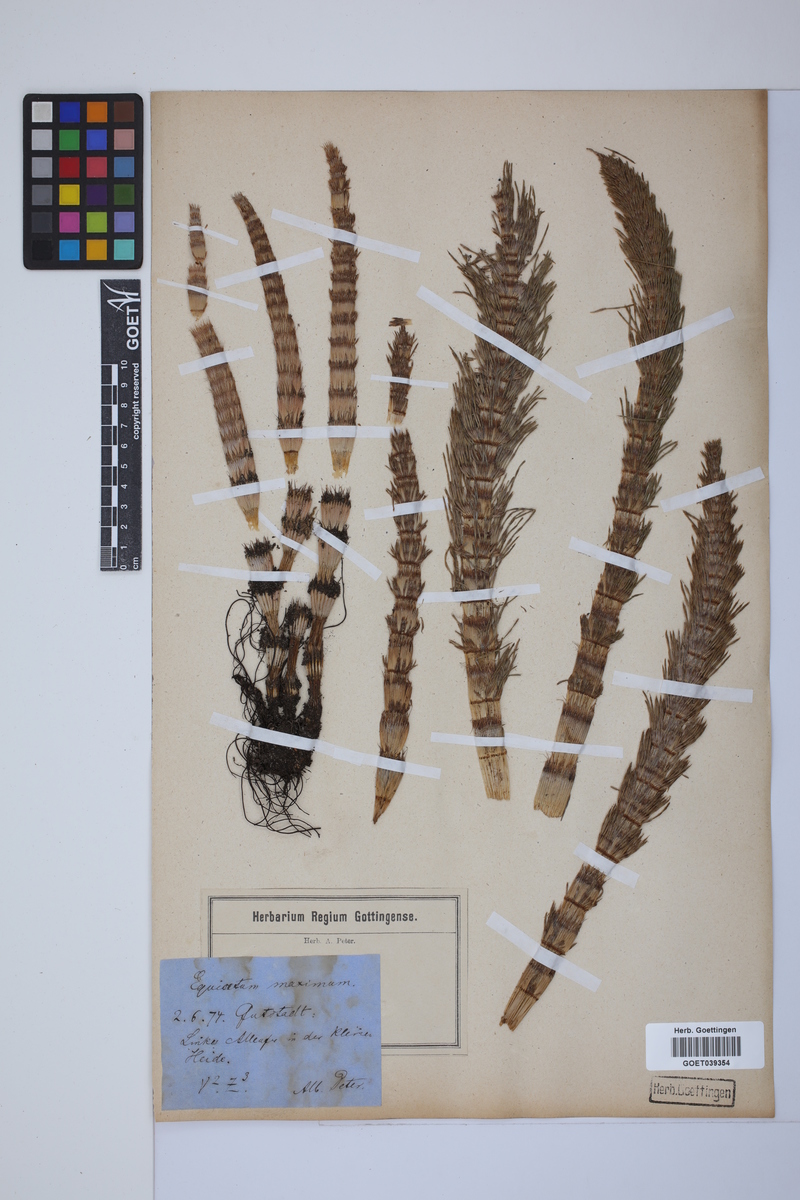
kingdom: Plantae
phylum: Tracheophyta
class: Polypodiopsida
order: Equisetales
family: Equisetaceae
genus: Equisetum
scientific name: Equisetum telmateia
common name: Great horsetail
